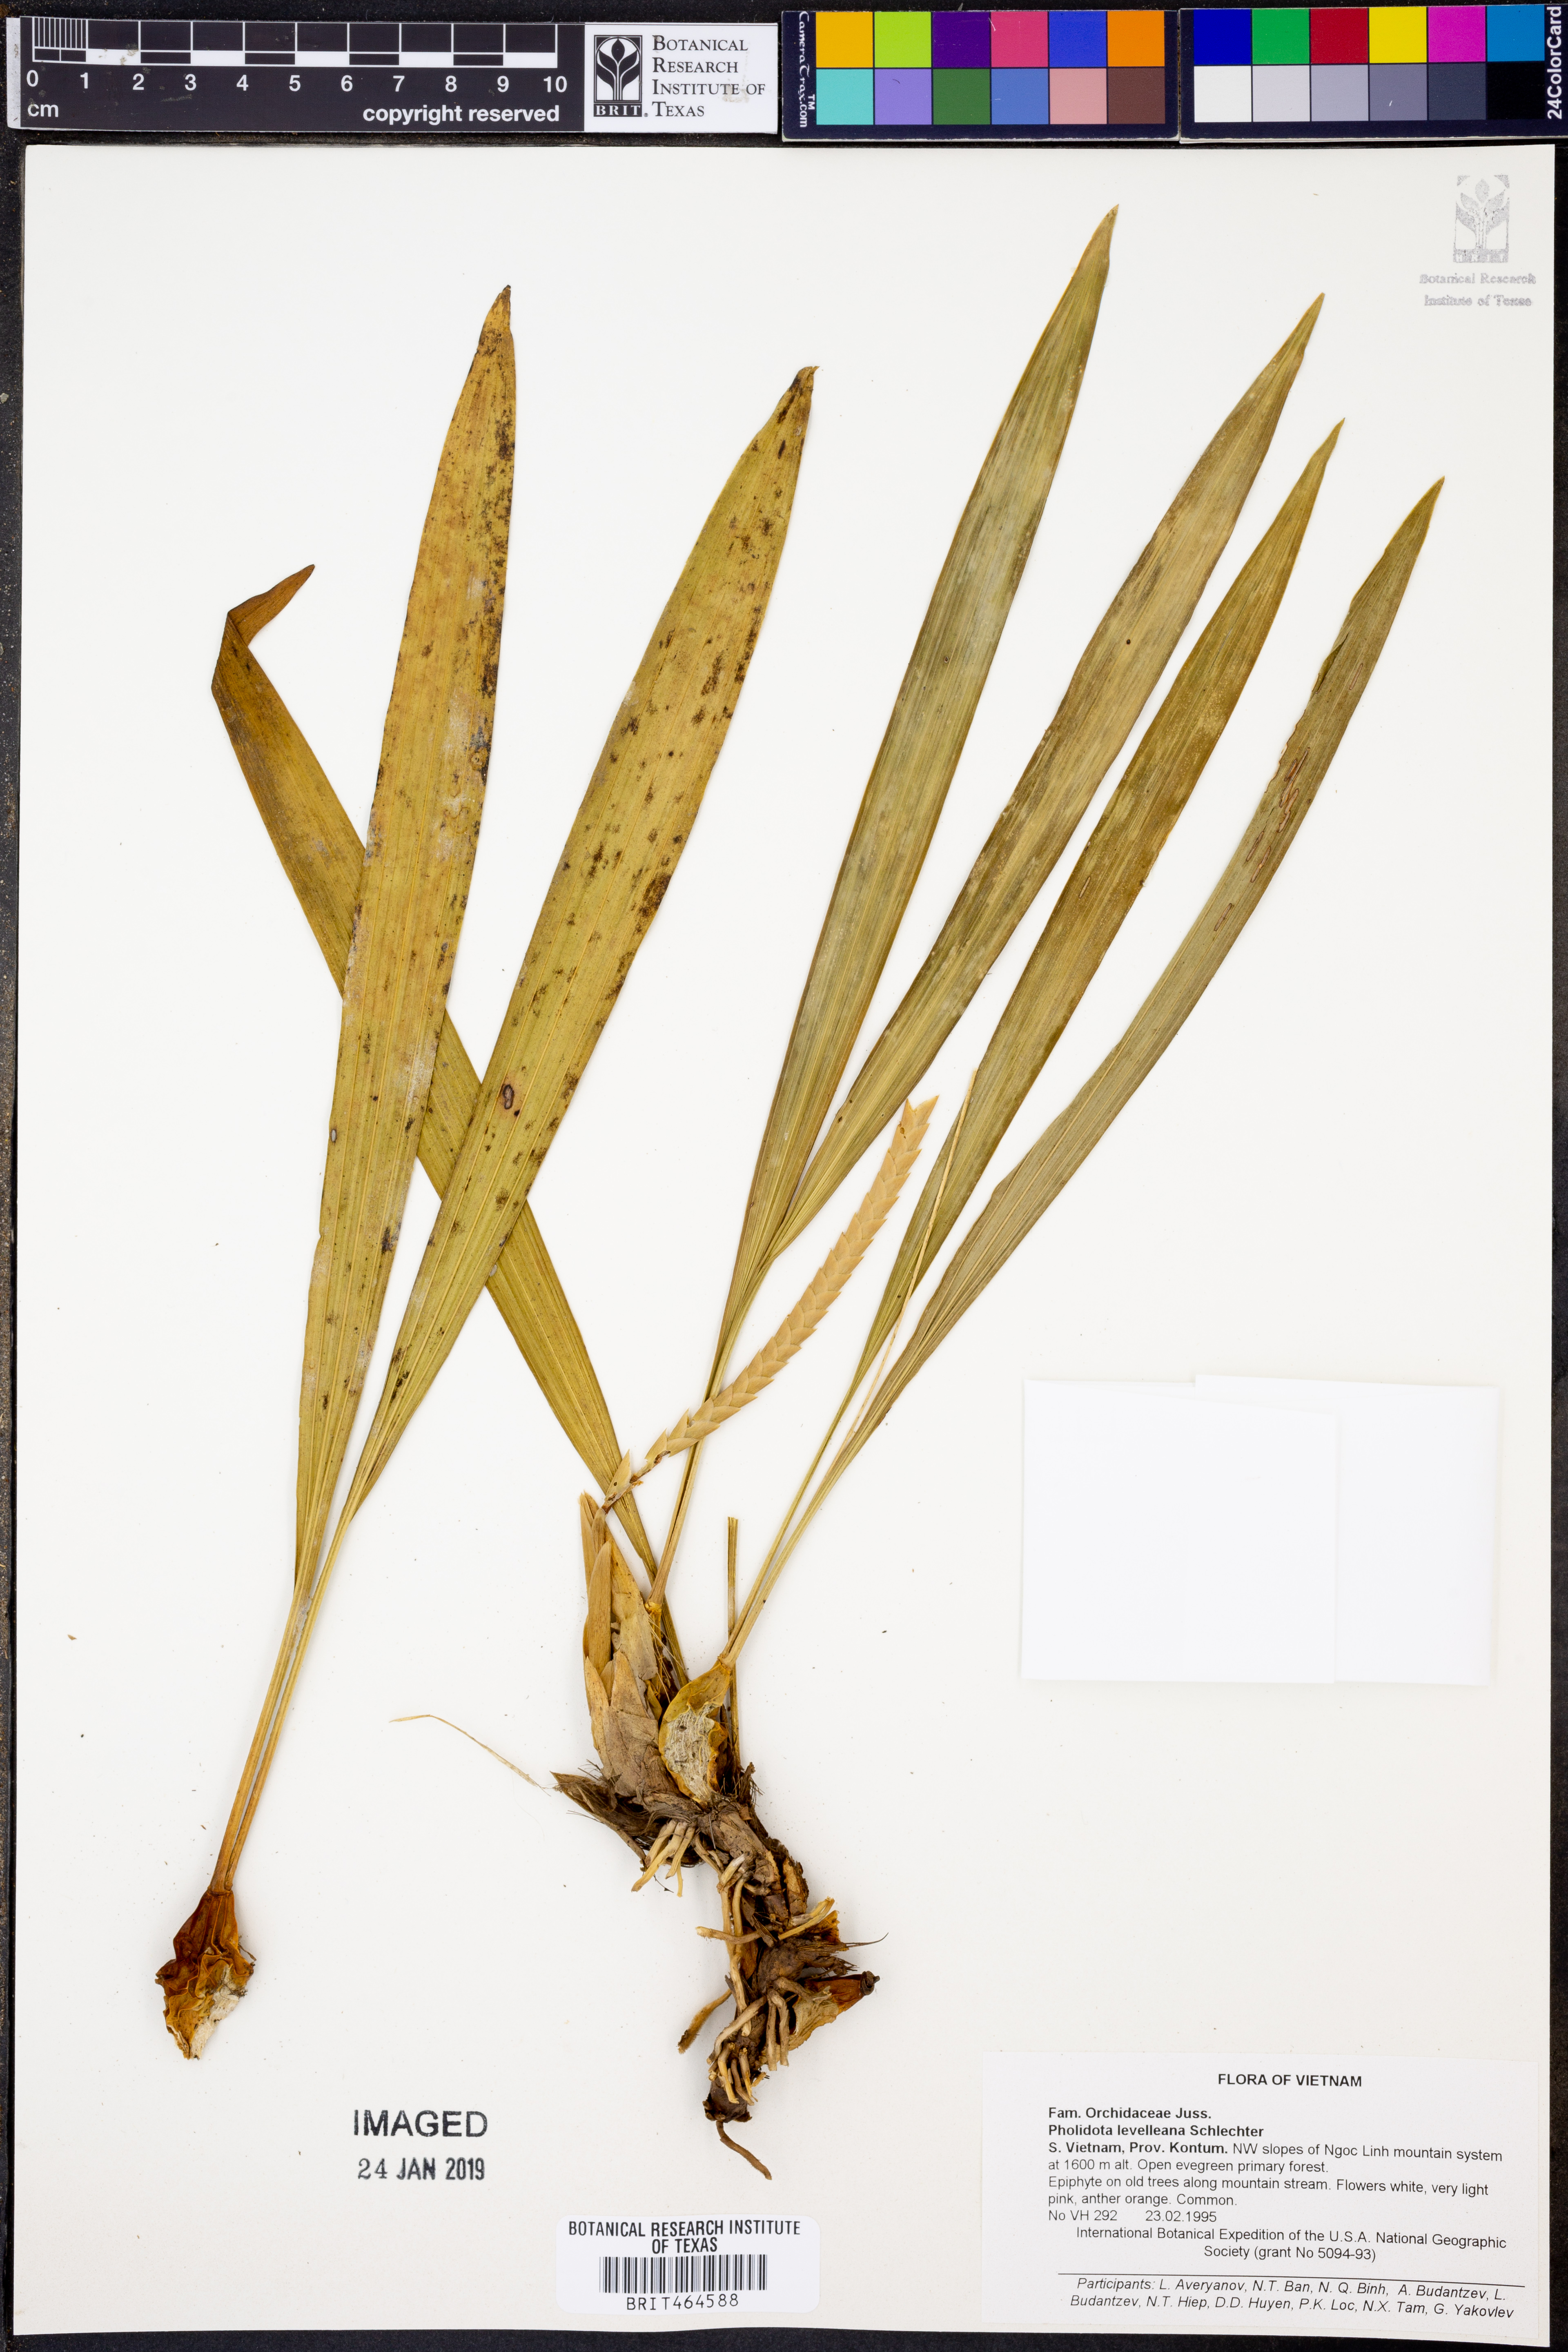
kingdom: Plantae
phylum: Tracheophyta
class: Liliopsida
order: Asparagales
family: Orchidaceae
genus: Coelogyne
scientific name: Coelogyne leveilleana
